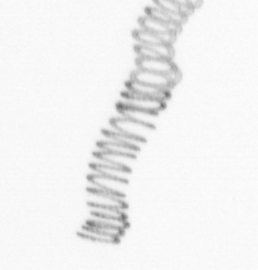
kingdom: Chromista
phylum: Ochrophyta
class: Bacillariophyceae
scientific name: Bacillariophyceae
